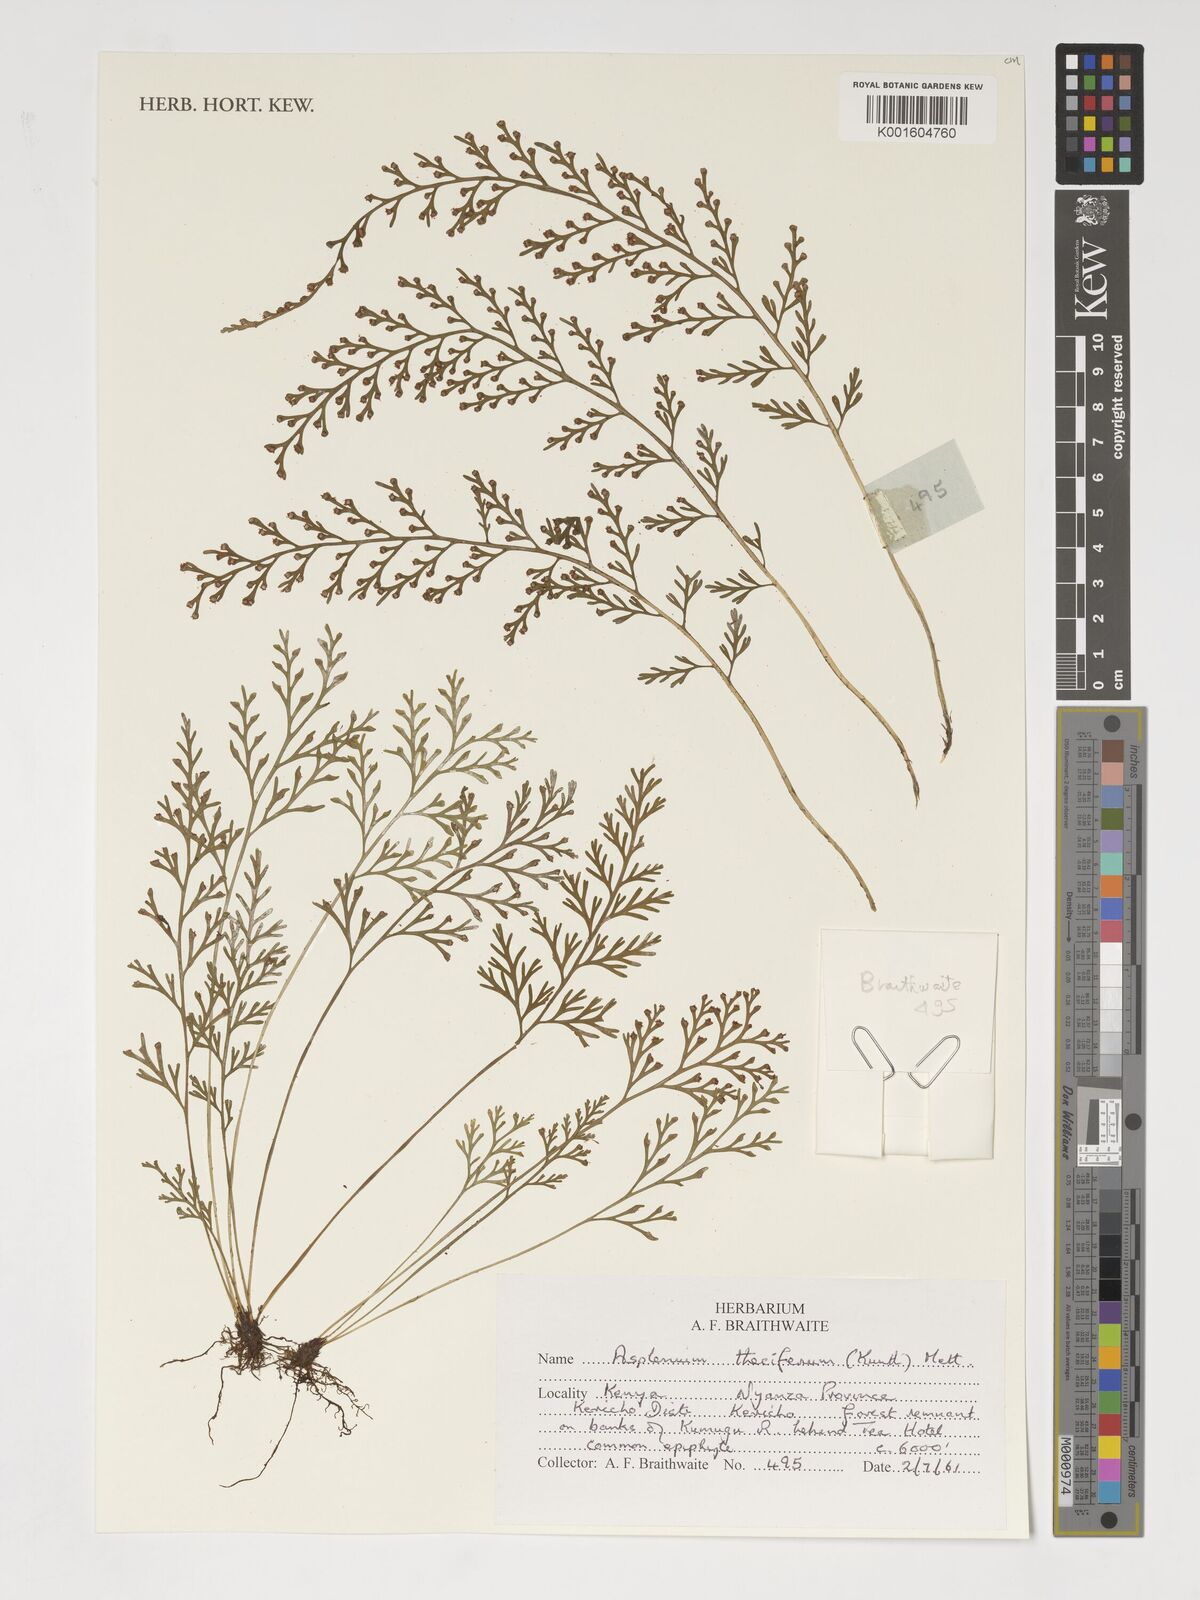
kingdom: Plantae
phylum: Tracheophyta
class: Polypodiopsida
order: Polypodiales
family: Aspleniaceae
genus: Asplenium
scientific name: Asplenium theciferum
